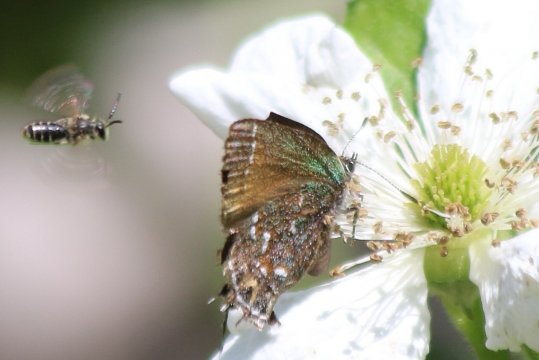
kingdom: Animalia
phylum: Arthropoda
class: Insecta
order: Lepidoptera
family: Lycaenidae
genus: Mitoura
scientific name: Mitoura gryneus
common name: Juniper Hairstreak
